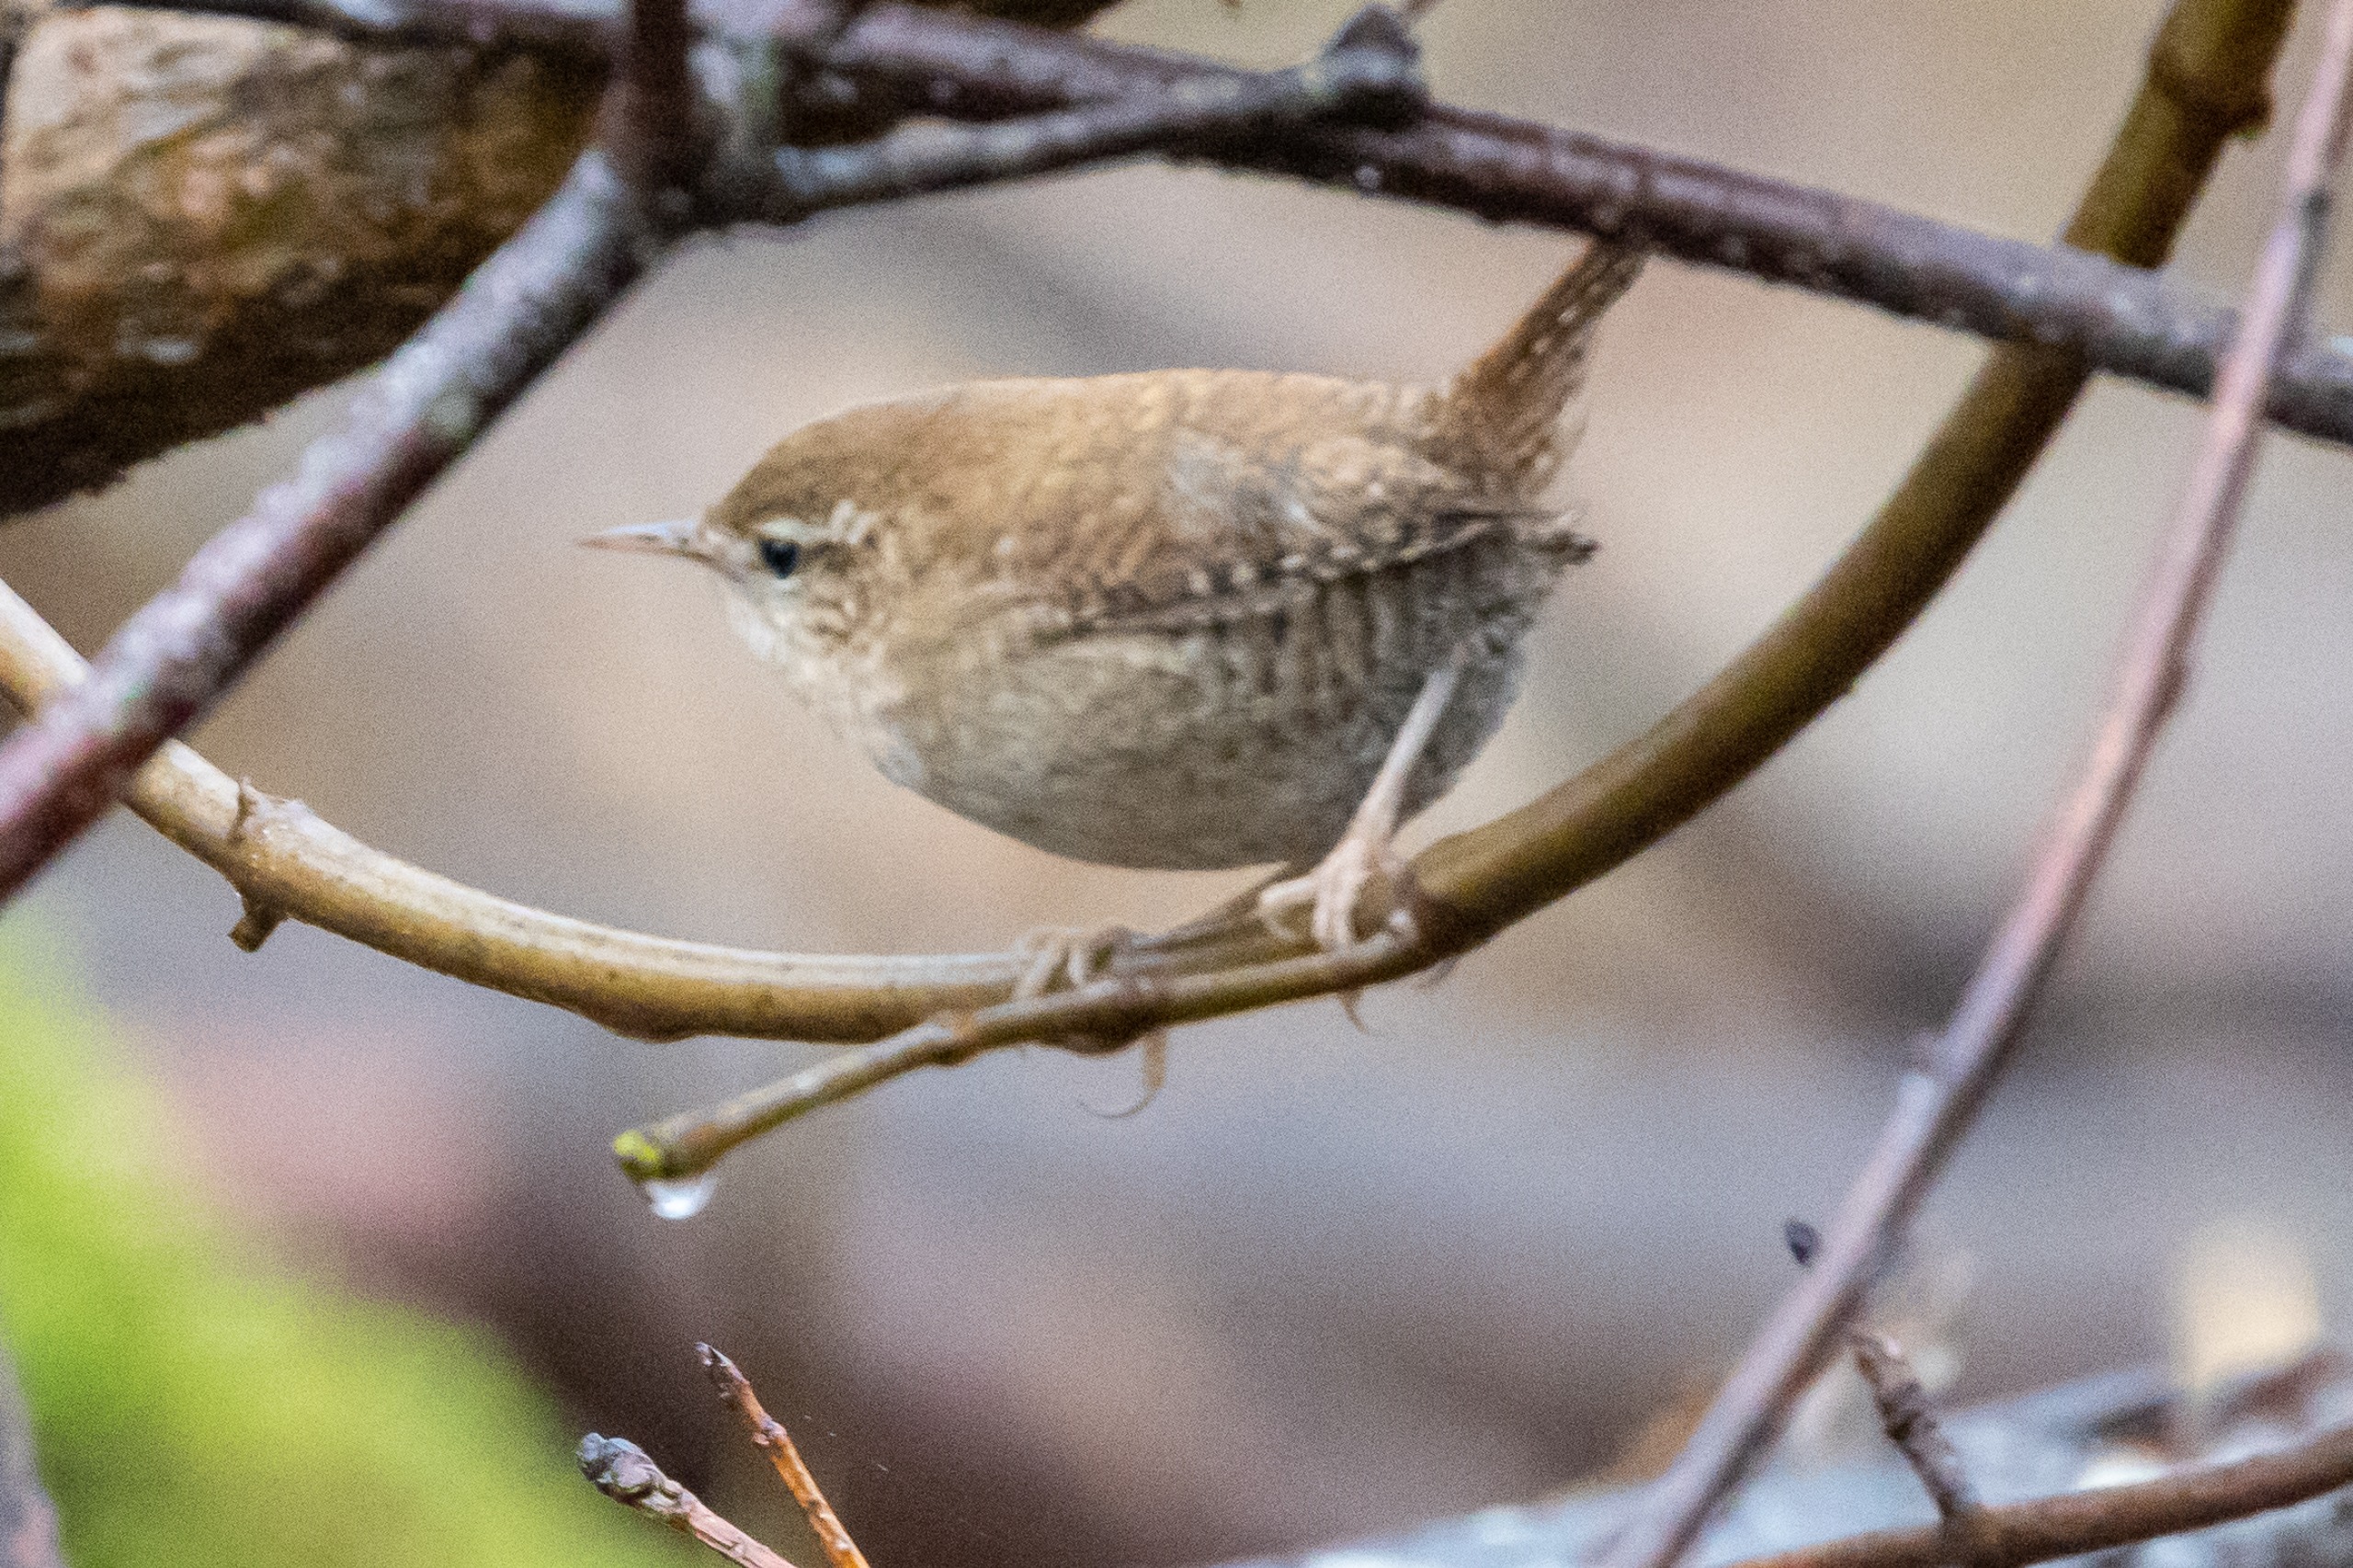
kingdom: Animalia
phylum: Chordata
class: Aves
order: Passeriformes
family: Troglodytidae
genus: Troglodytes
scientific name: Troglodytes troglodytes
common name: Gærdesmutte
